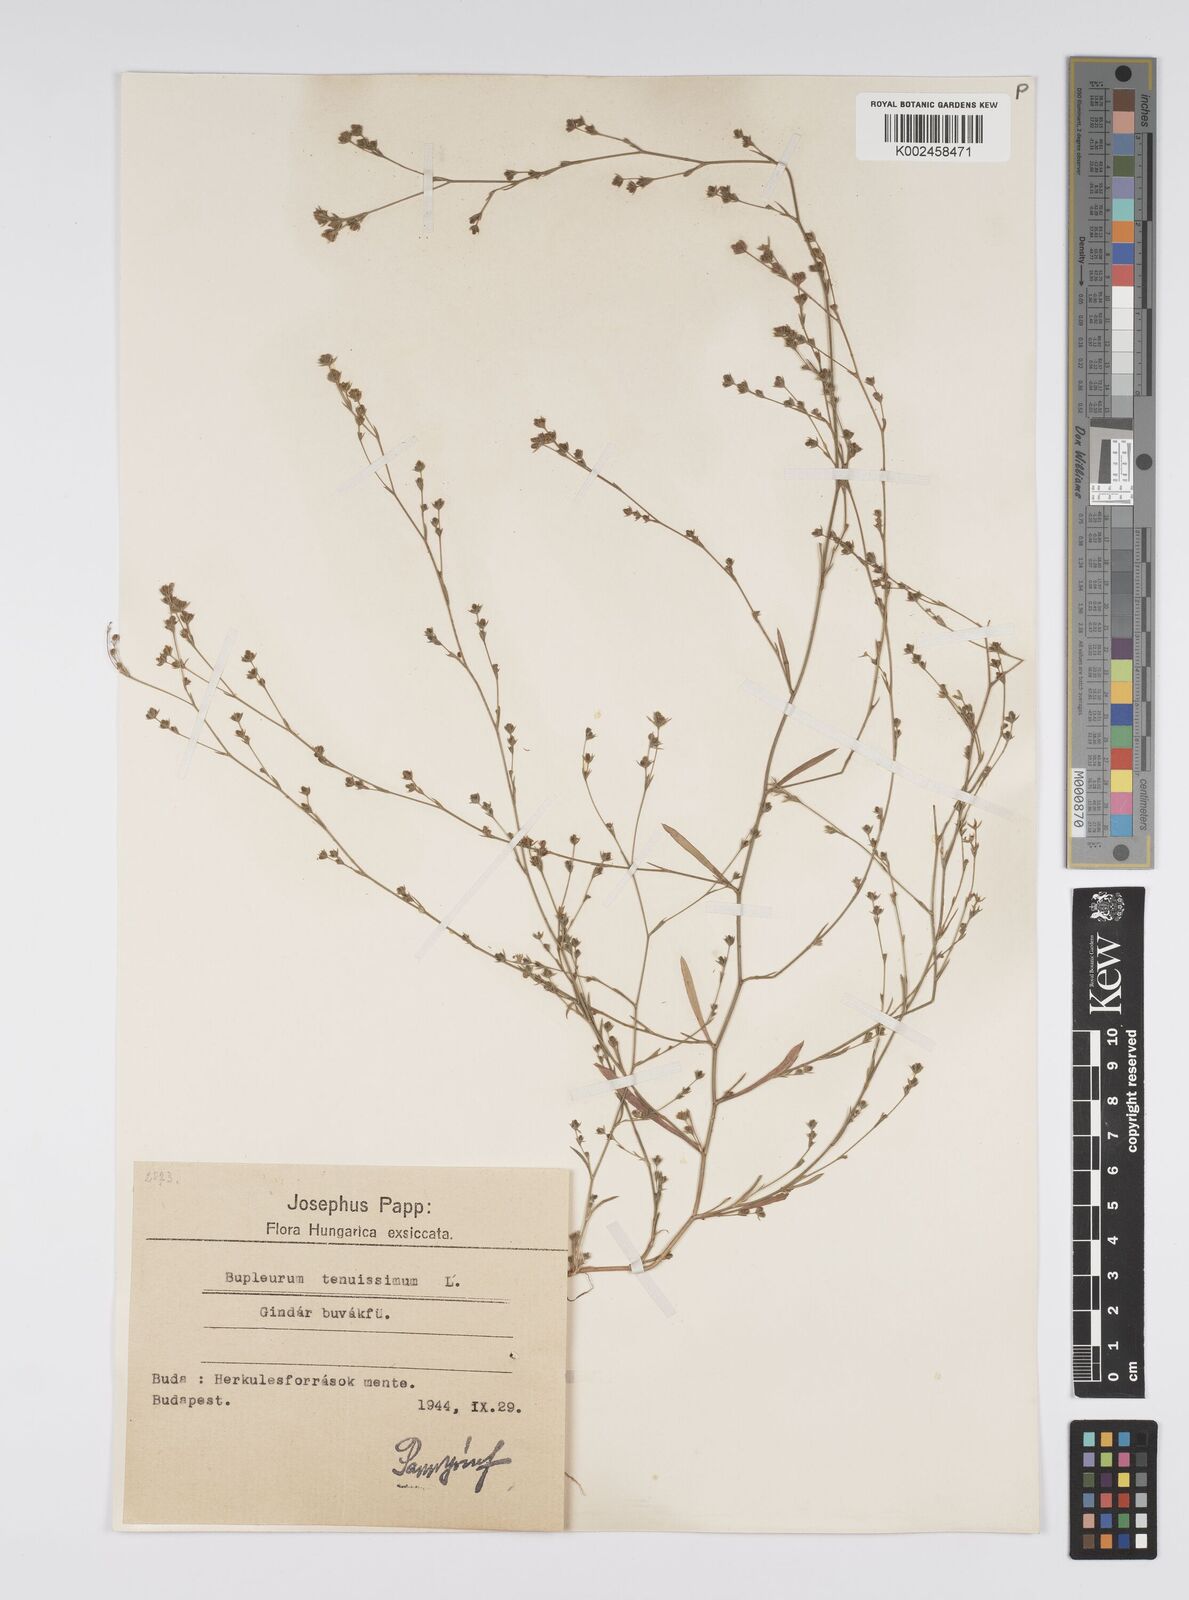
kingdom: Plantae
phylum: Tracheophyta
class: Magnoliopsida
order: Apiales
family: Apiaceae
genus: Bupleurum
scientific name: Bupleurum tenuissimum
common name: Slender hare's-ear
